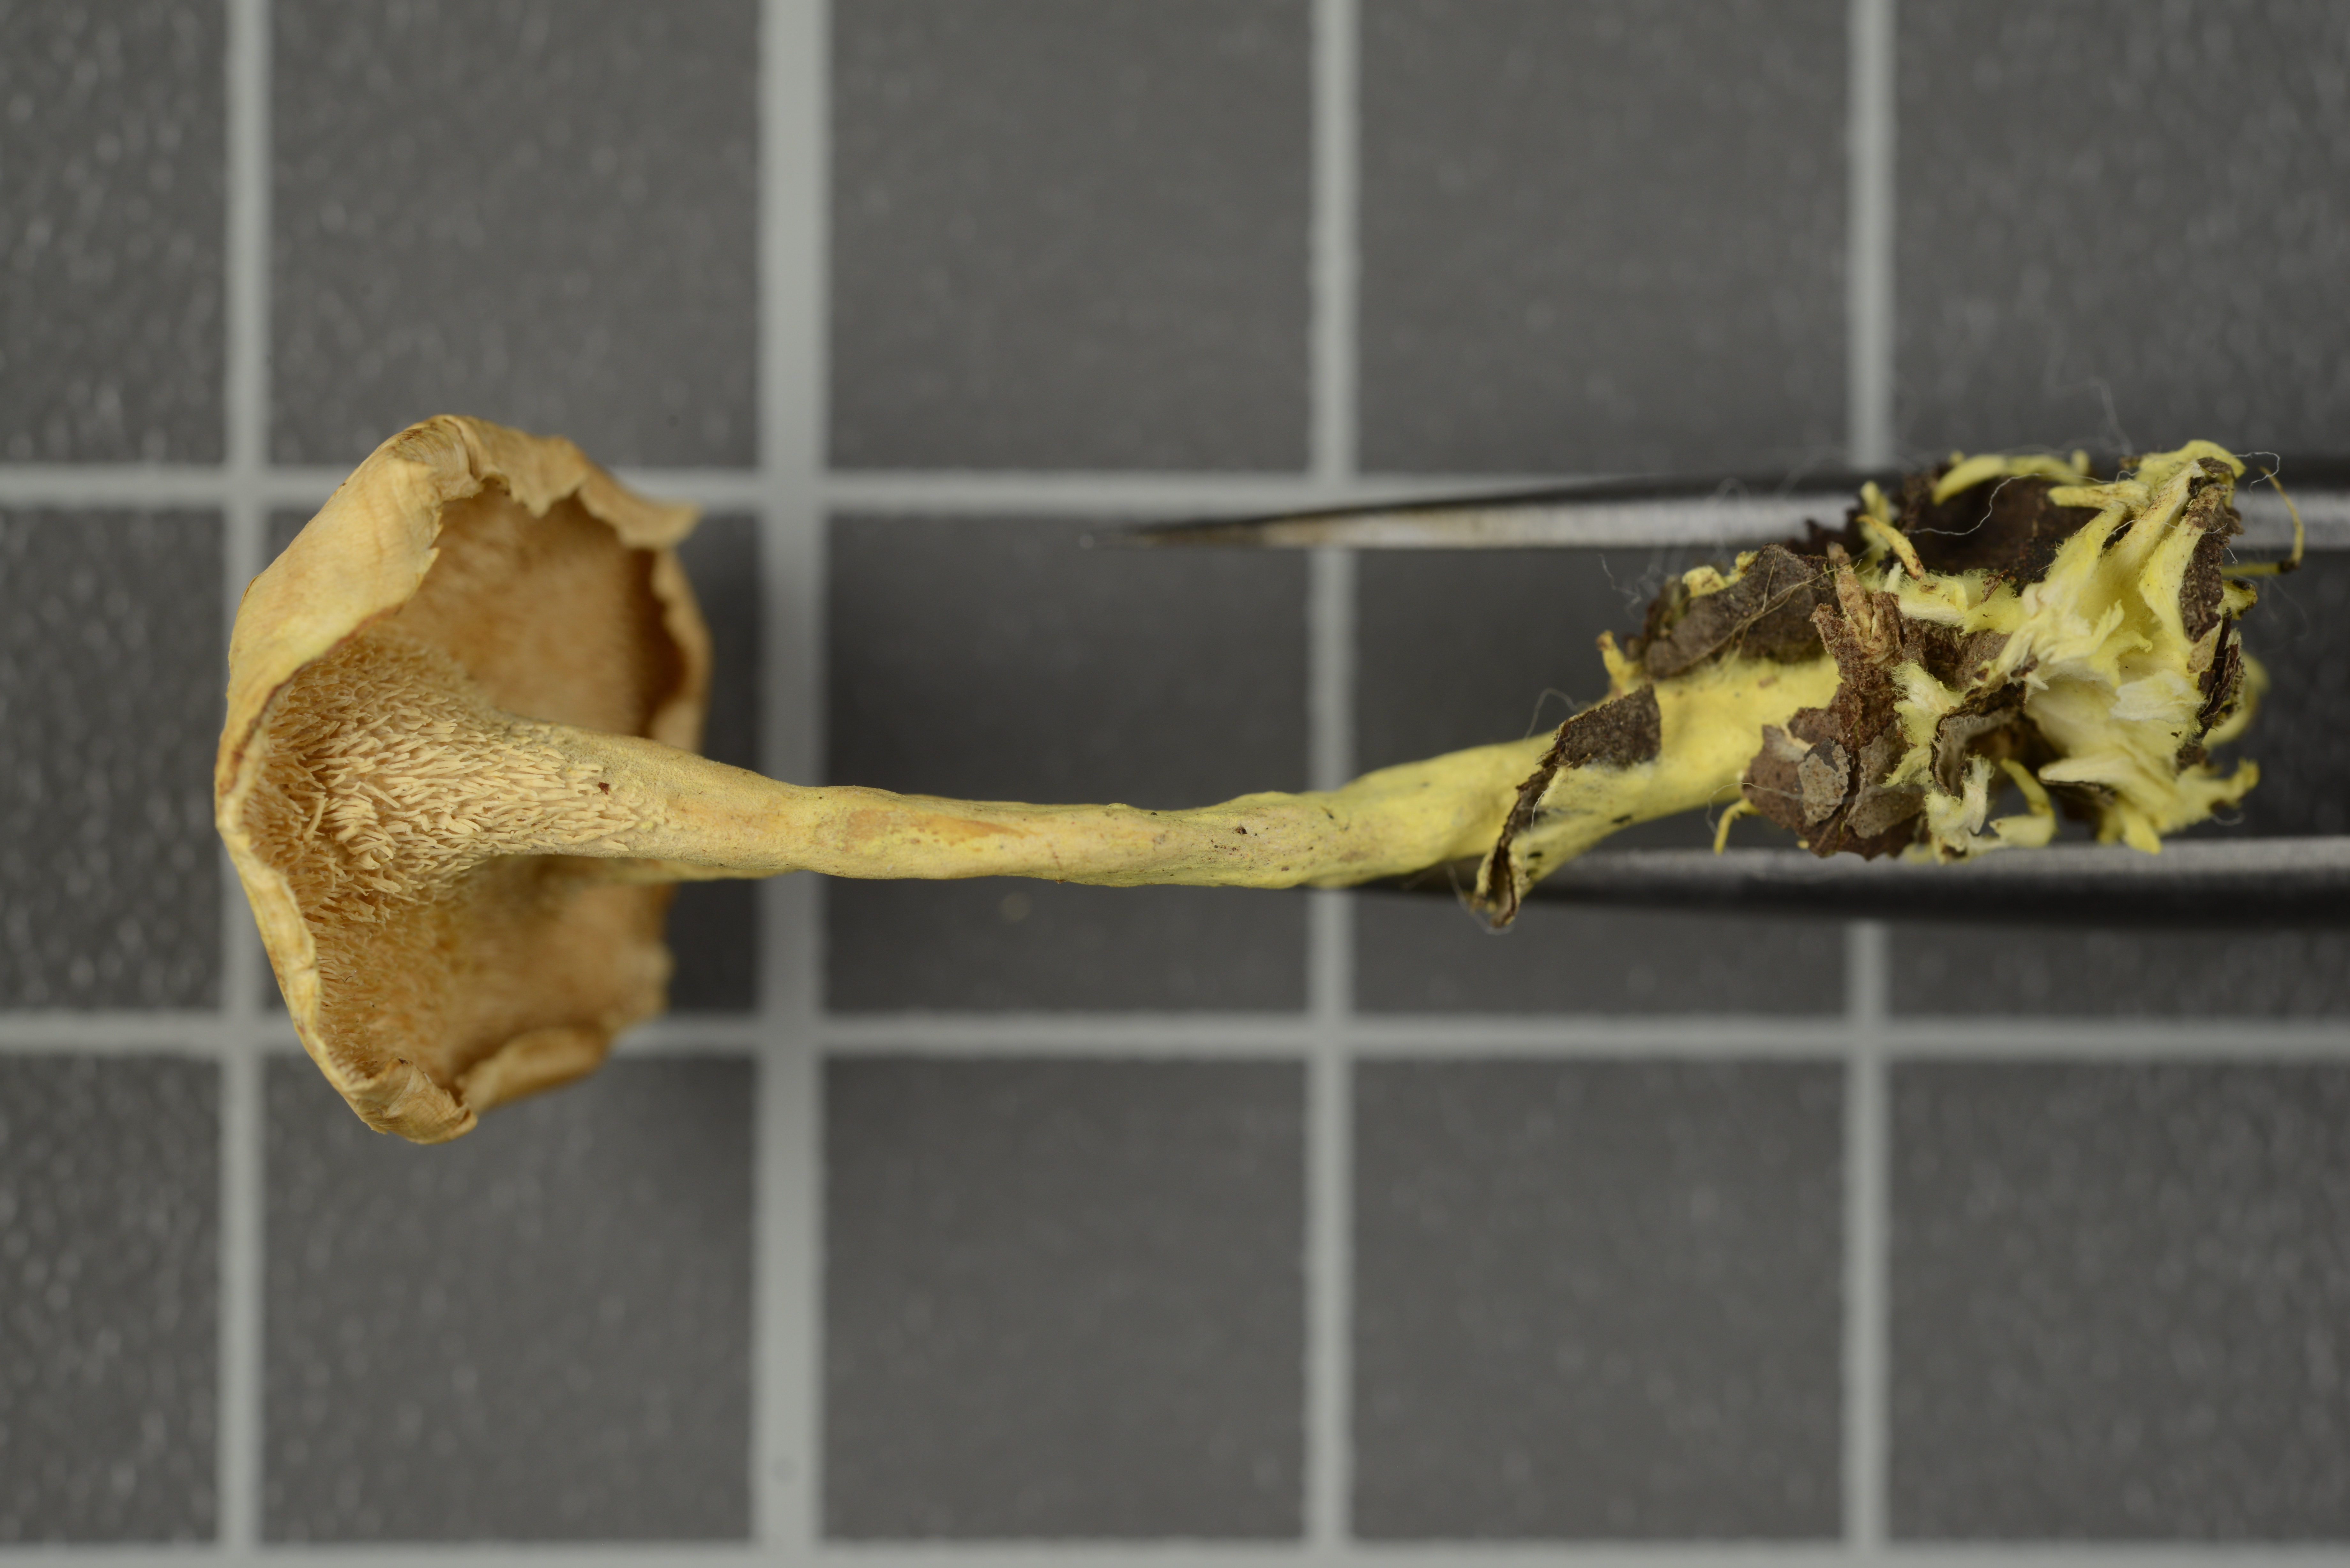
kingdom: Fungi
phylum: Basidiomycota
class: Agaricomycetes
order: Polyporales
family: Steccherinaceae
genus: Mycorrhaphium
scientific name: Mycorrhaphium citrinum
